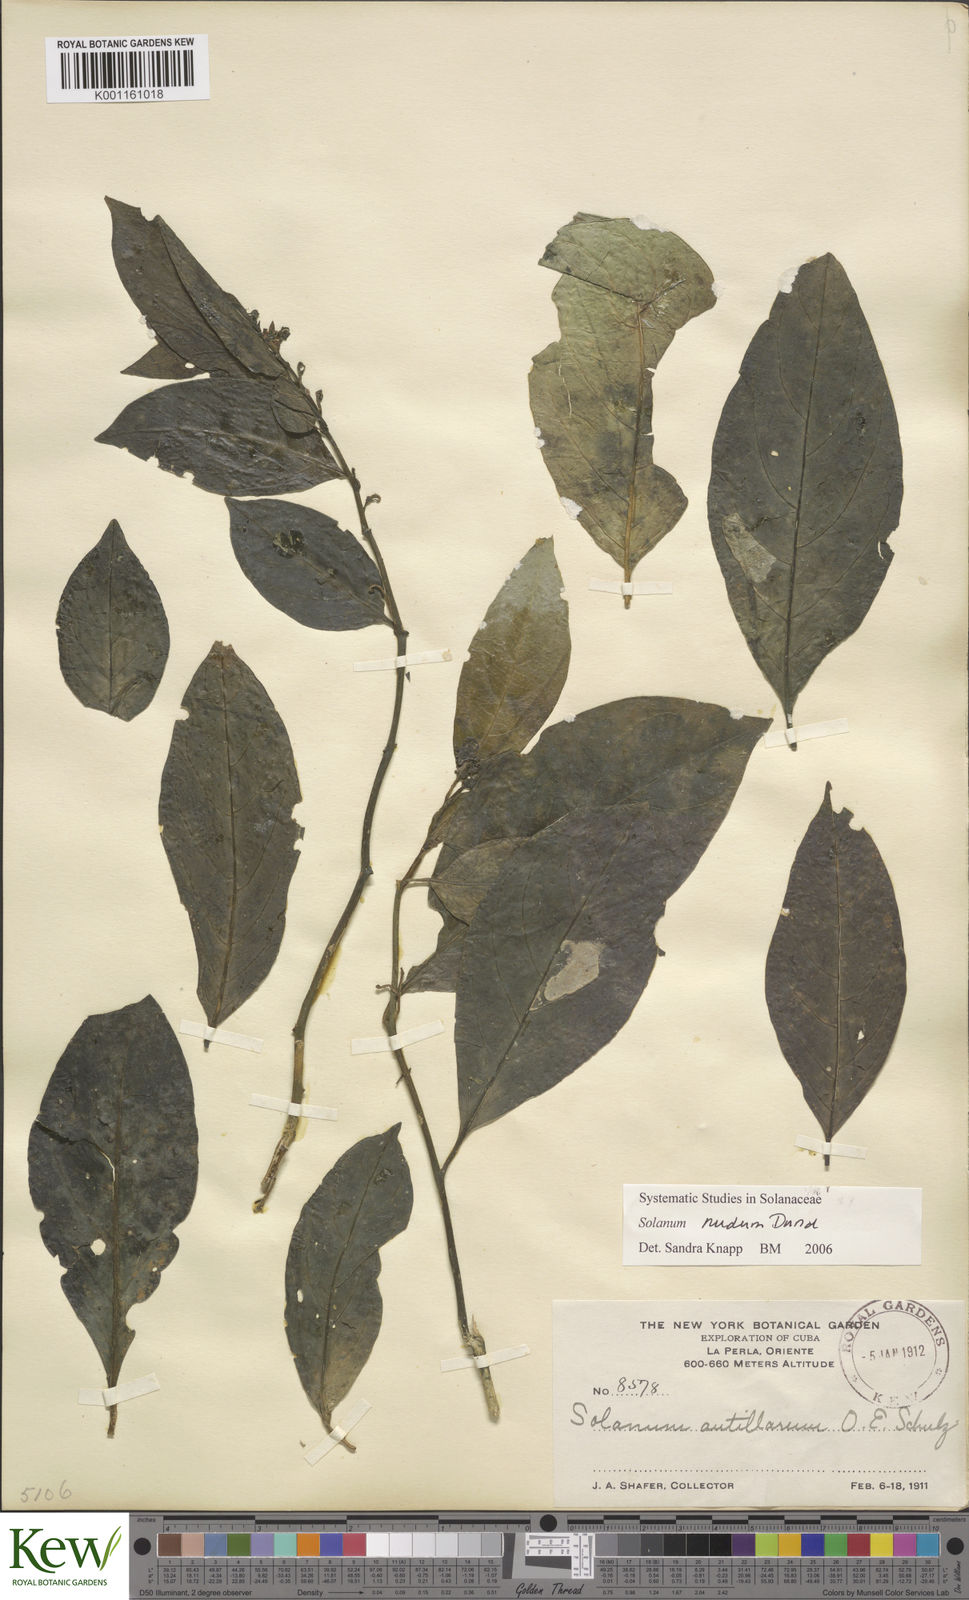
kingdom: Plantae
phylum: Tracheophyta
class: Magnoliopsida
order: Solanales
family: Solanaceae
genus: Solanum
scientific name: Solanum nudum
